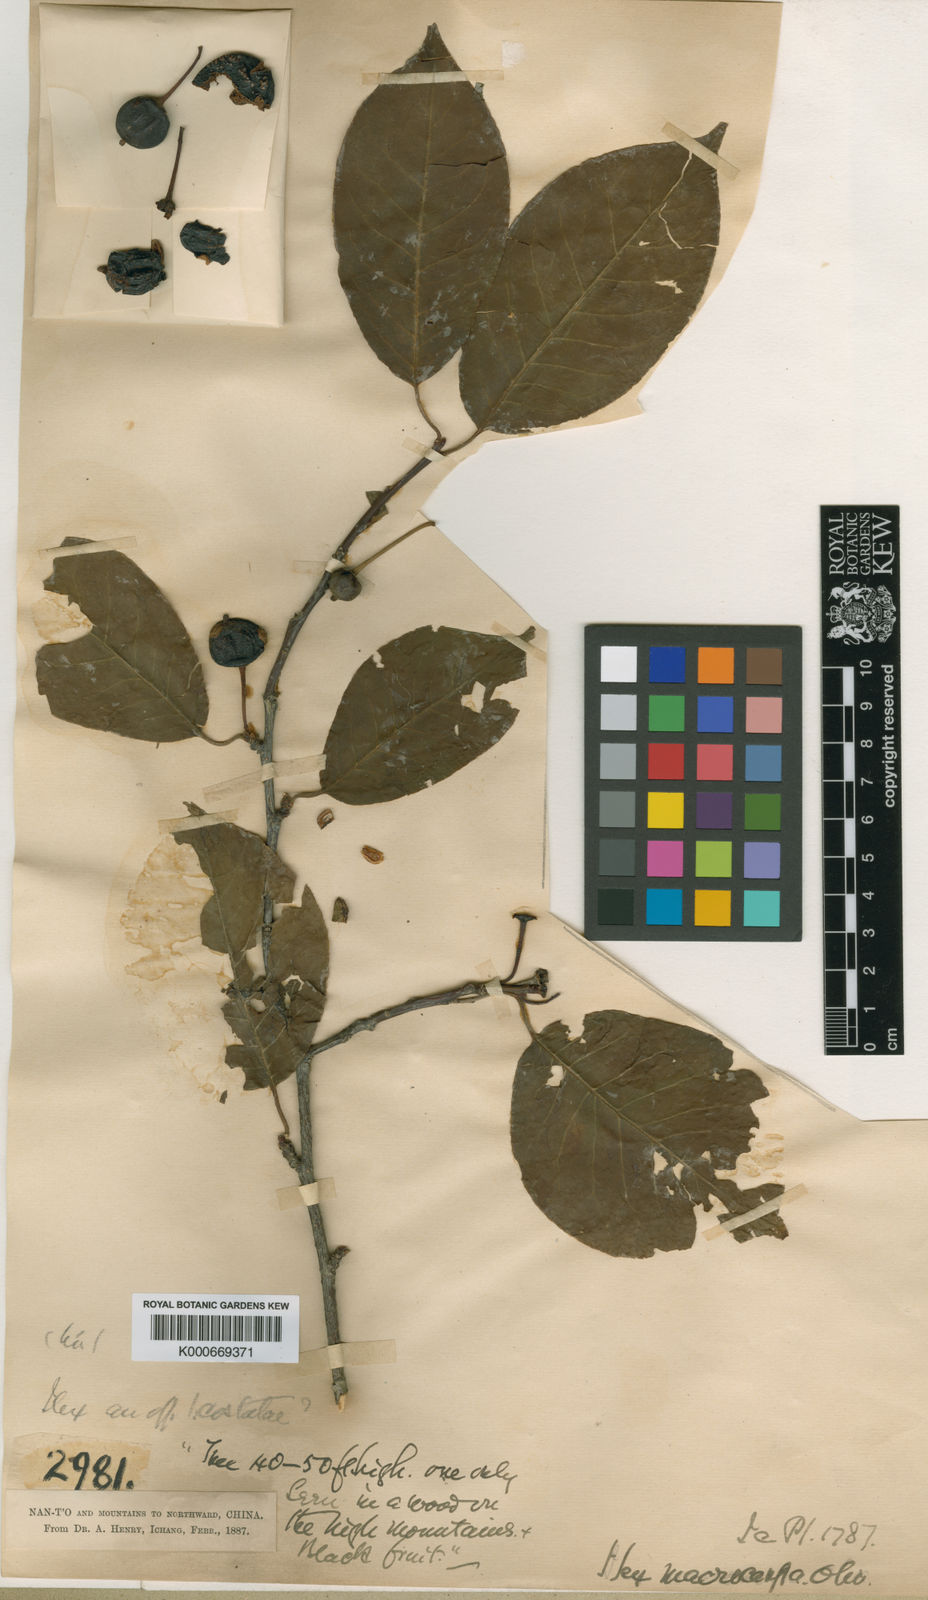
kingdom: Plantae
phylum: Tracheophyta
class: Magnoliopsida
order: Aquifoliales
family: Aquifoliaceae
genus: Ilex
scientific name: Ilex macrocarpa
